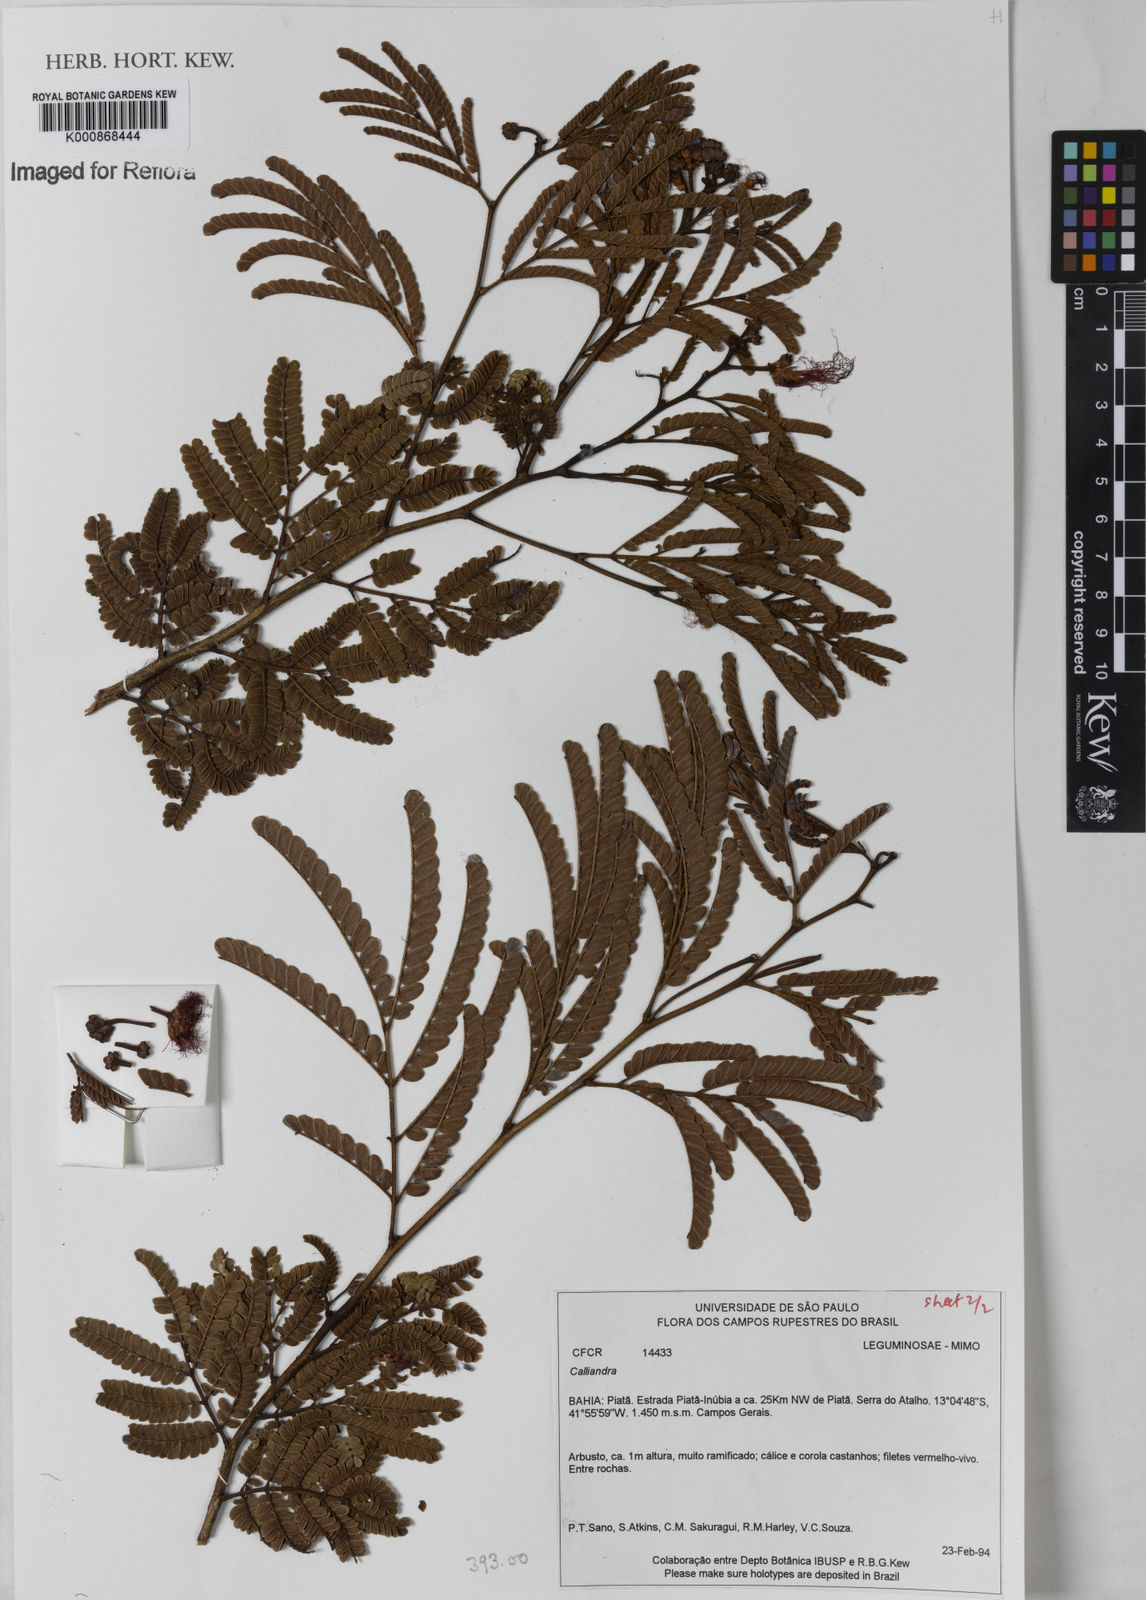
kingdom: Plantae
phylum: Tracheophyta
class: Magnoliopsida
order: Fabales
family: Fabaceae
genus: Calliandra
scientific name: Calliandra imbricata
